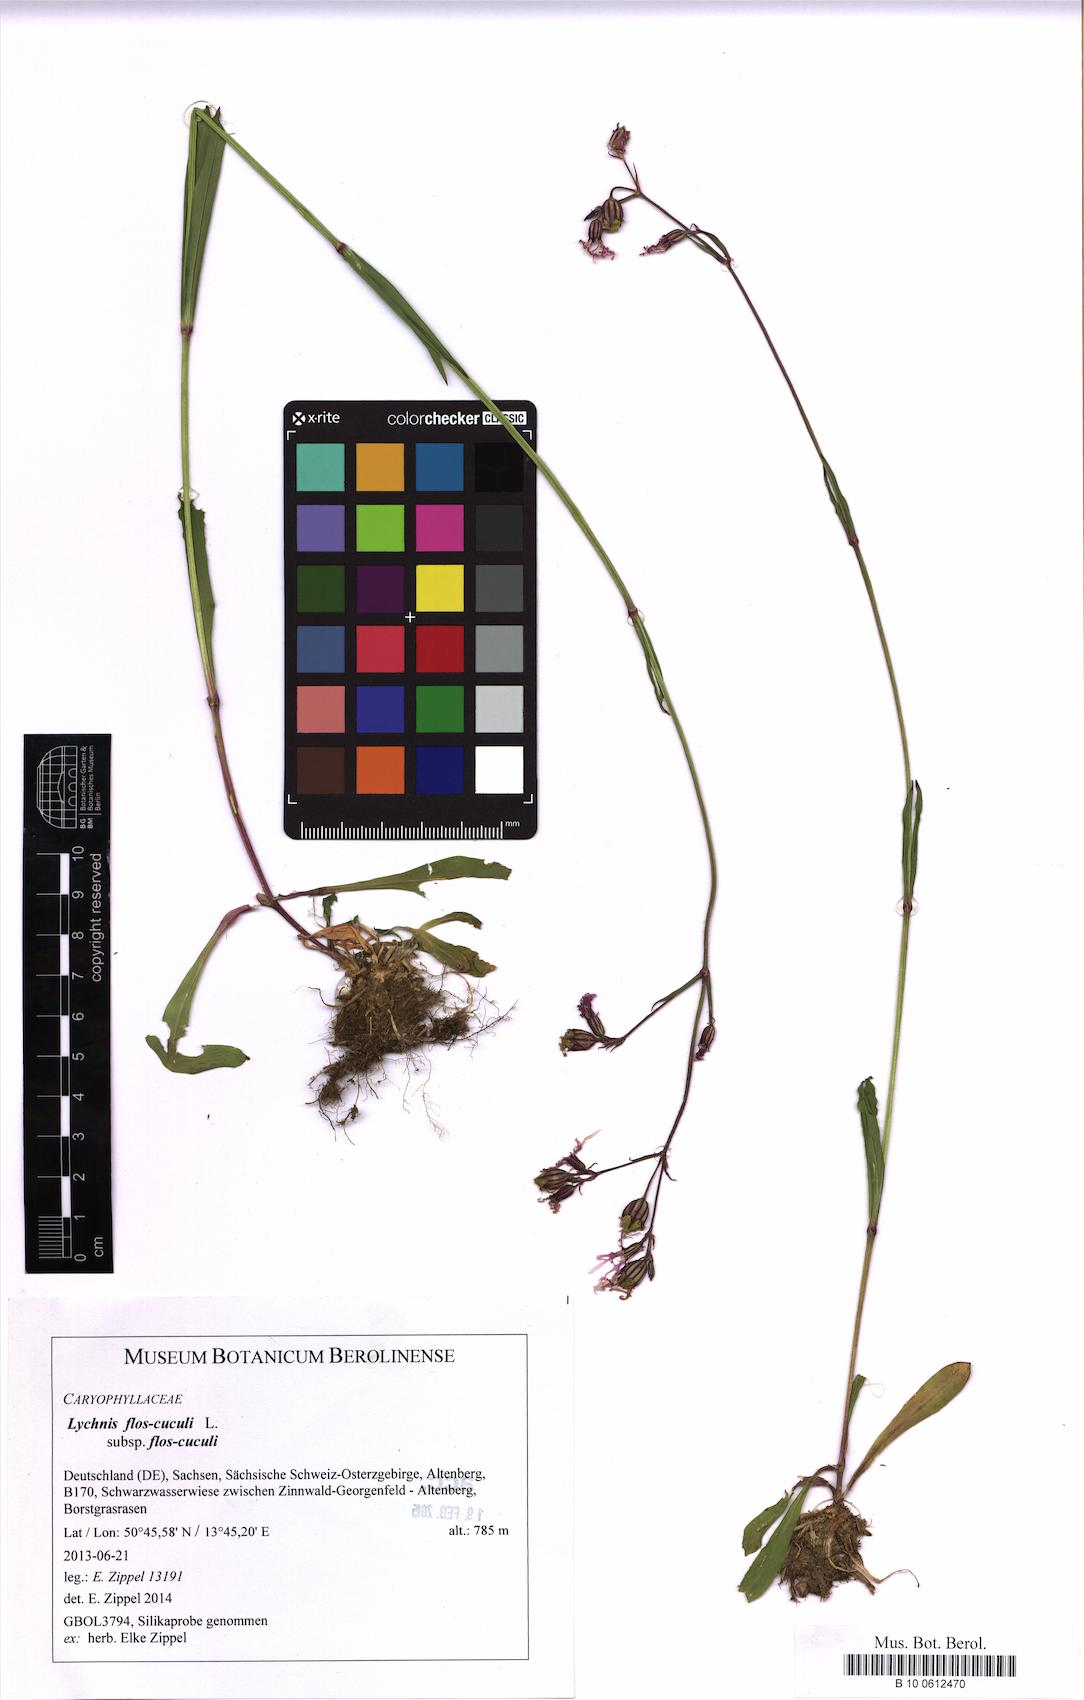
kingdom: Plantae
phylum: Tracheophyta
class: Magnoliopsida
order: Caryophyllales
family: Caryophyllaceae
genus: Silene
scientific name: Silene flos-cuculi
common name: Ragged-robin
